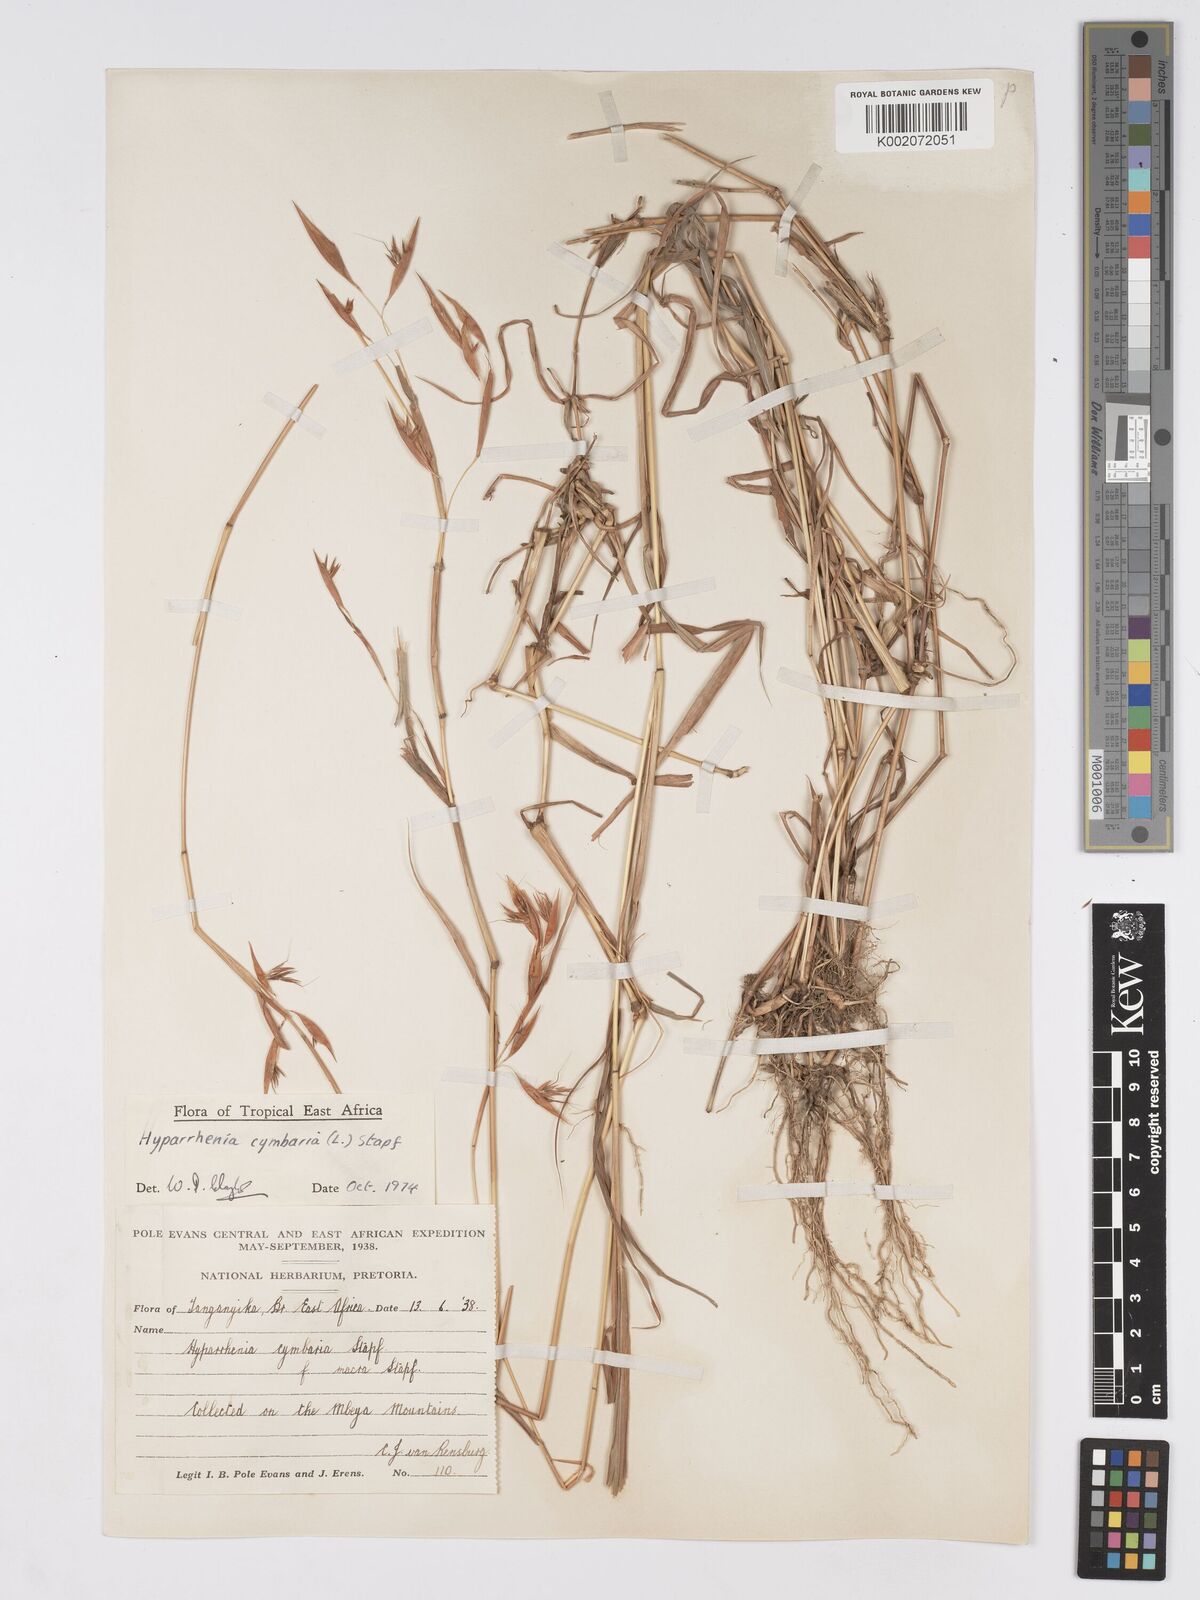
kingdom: Plantae
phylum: Tracheophyta
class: Liliopsida
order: Poales
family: Poaceae
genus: Hyparrhenia
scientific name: Hyparrhenia cymbaria
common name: Boat thatching grass
